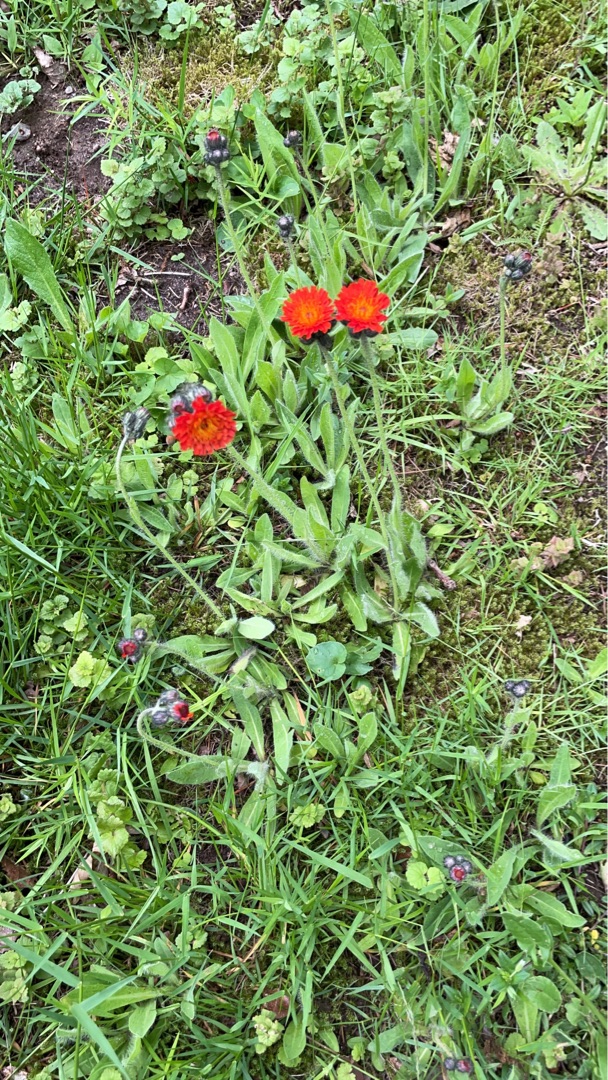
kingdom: Plantae
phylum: Tracheophyta
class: Magnoliopsida
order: Asterales
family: Asteraceae
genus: Pilosella
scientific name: Pilosella aurantiaca
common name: Pomerans-høgeurt
